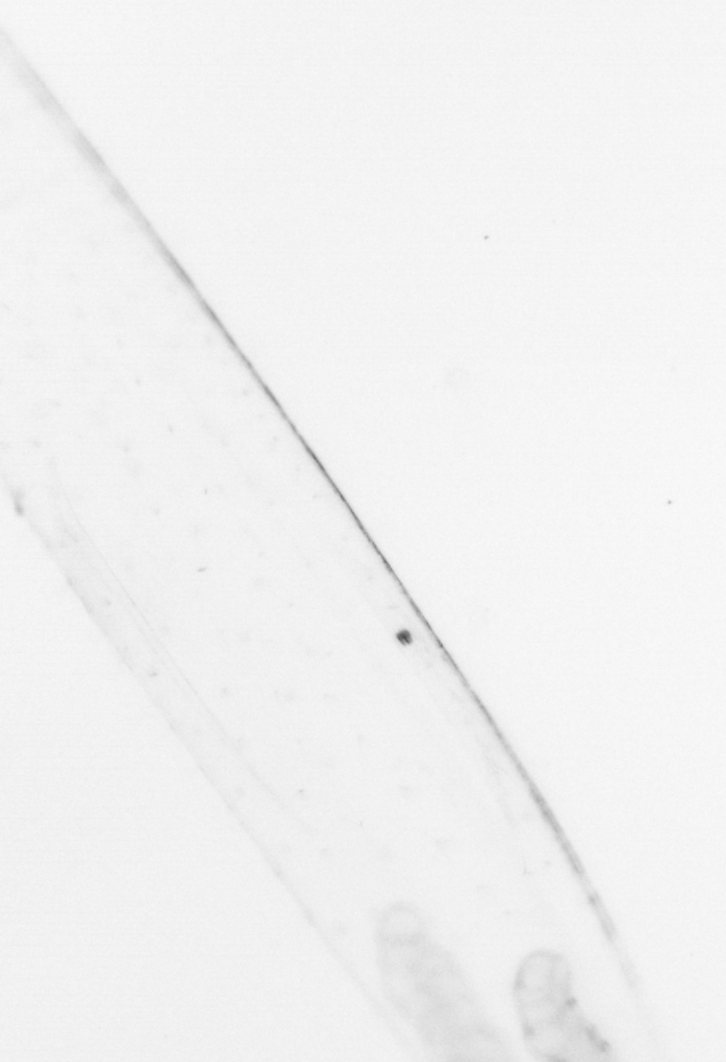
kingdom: Chromista
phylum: Ochrophyta
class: Bacillariophyceae
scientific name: Bacillariophyceae
